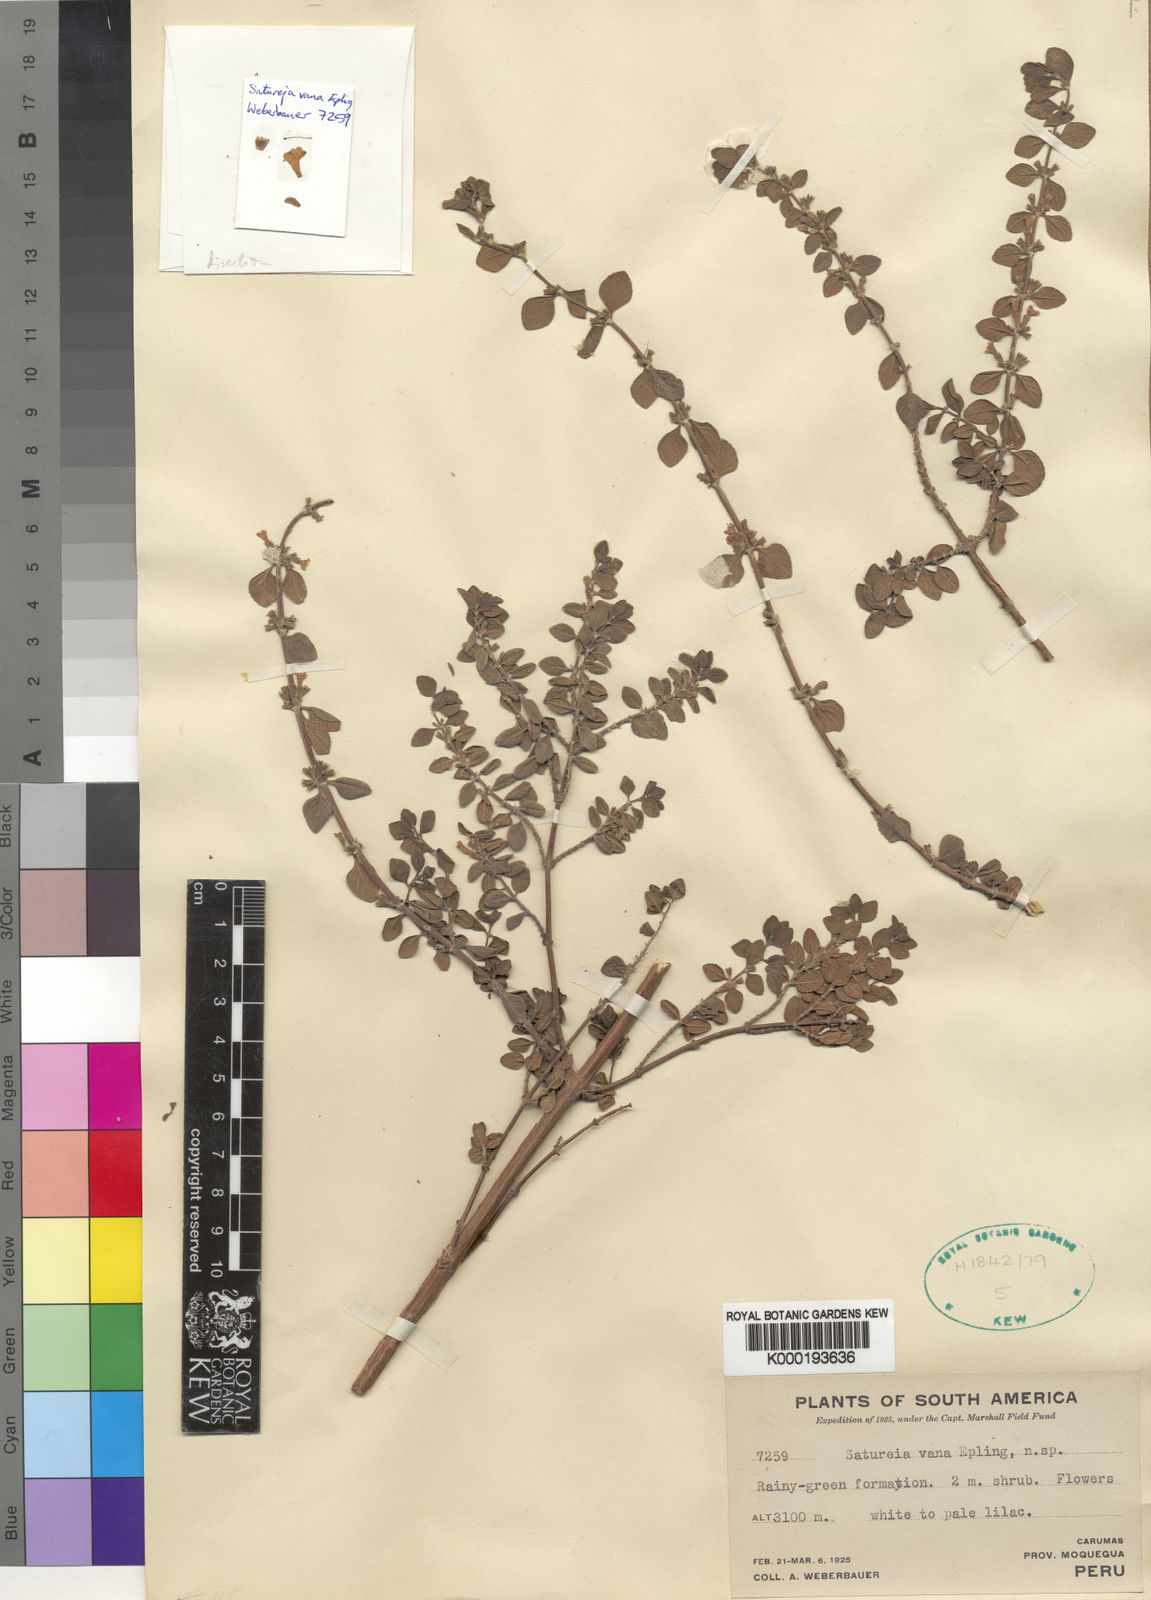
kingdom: Plantae
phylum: Tracheophyta
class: Magnoliopsida
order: Lamiales
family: Lamiaceae
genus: Clinopodium
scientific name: Clinopodium vanum
